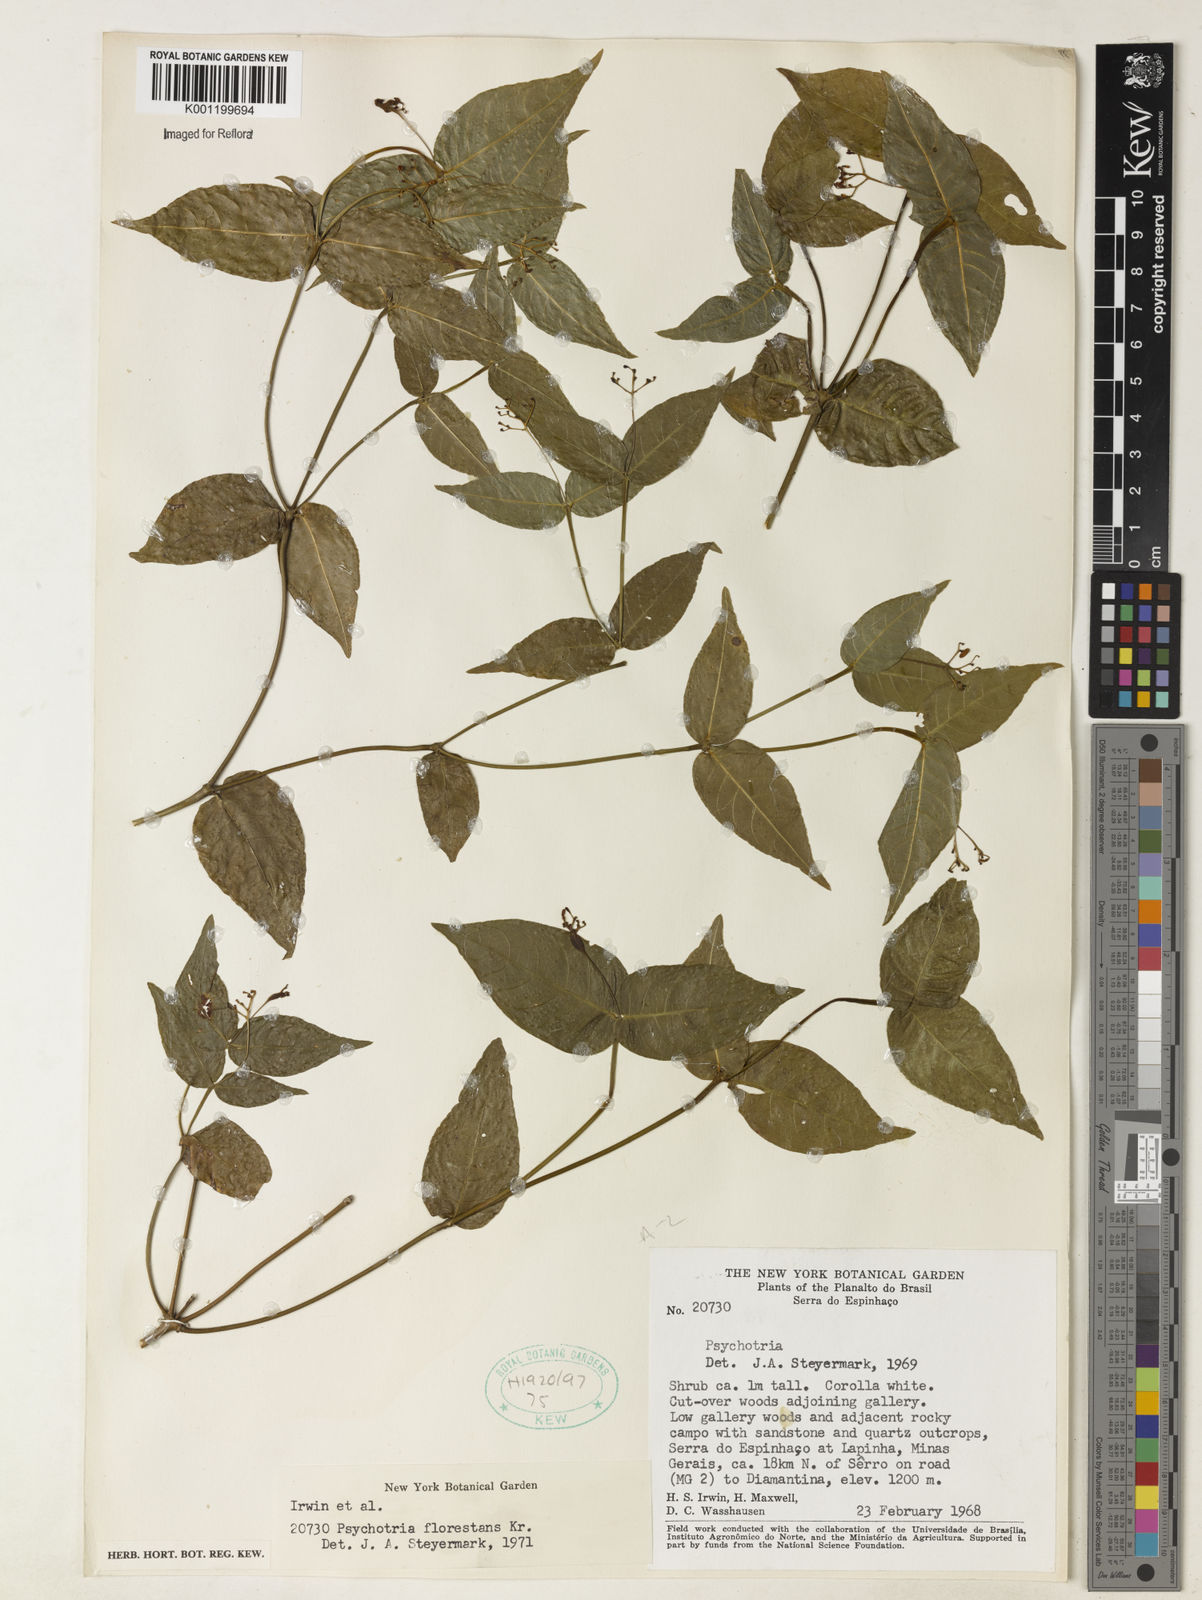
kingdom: Plantae
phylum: Tracheophyta
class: Magnoliopsida
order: Gentianales
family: Rubiaceae
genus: Psychotria
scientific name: Psychotria warmingii
